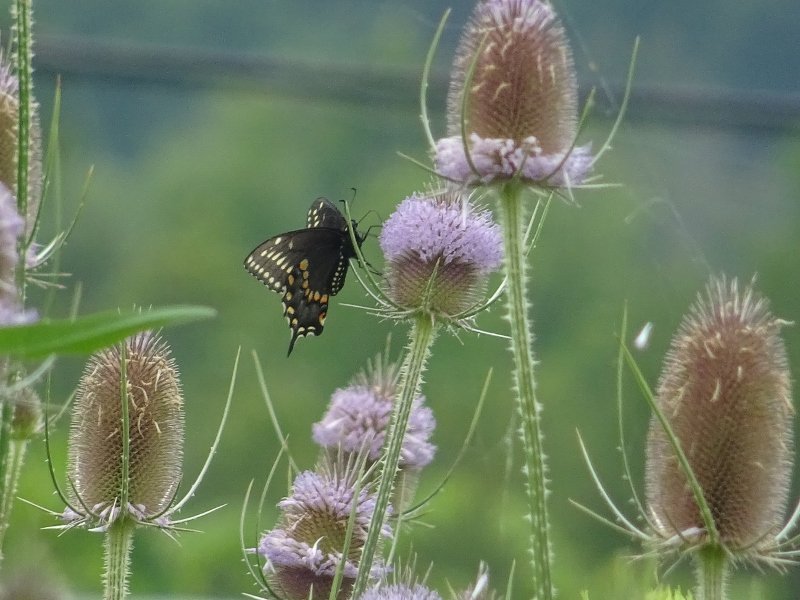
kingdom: Animalia
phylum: Arthropoda
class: Insecta
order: Lepidoptera
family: Papilionidae
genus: Papilio
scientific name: Papilio polyxenes
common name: Black Swallowtail
